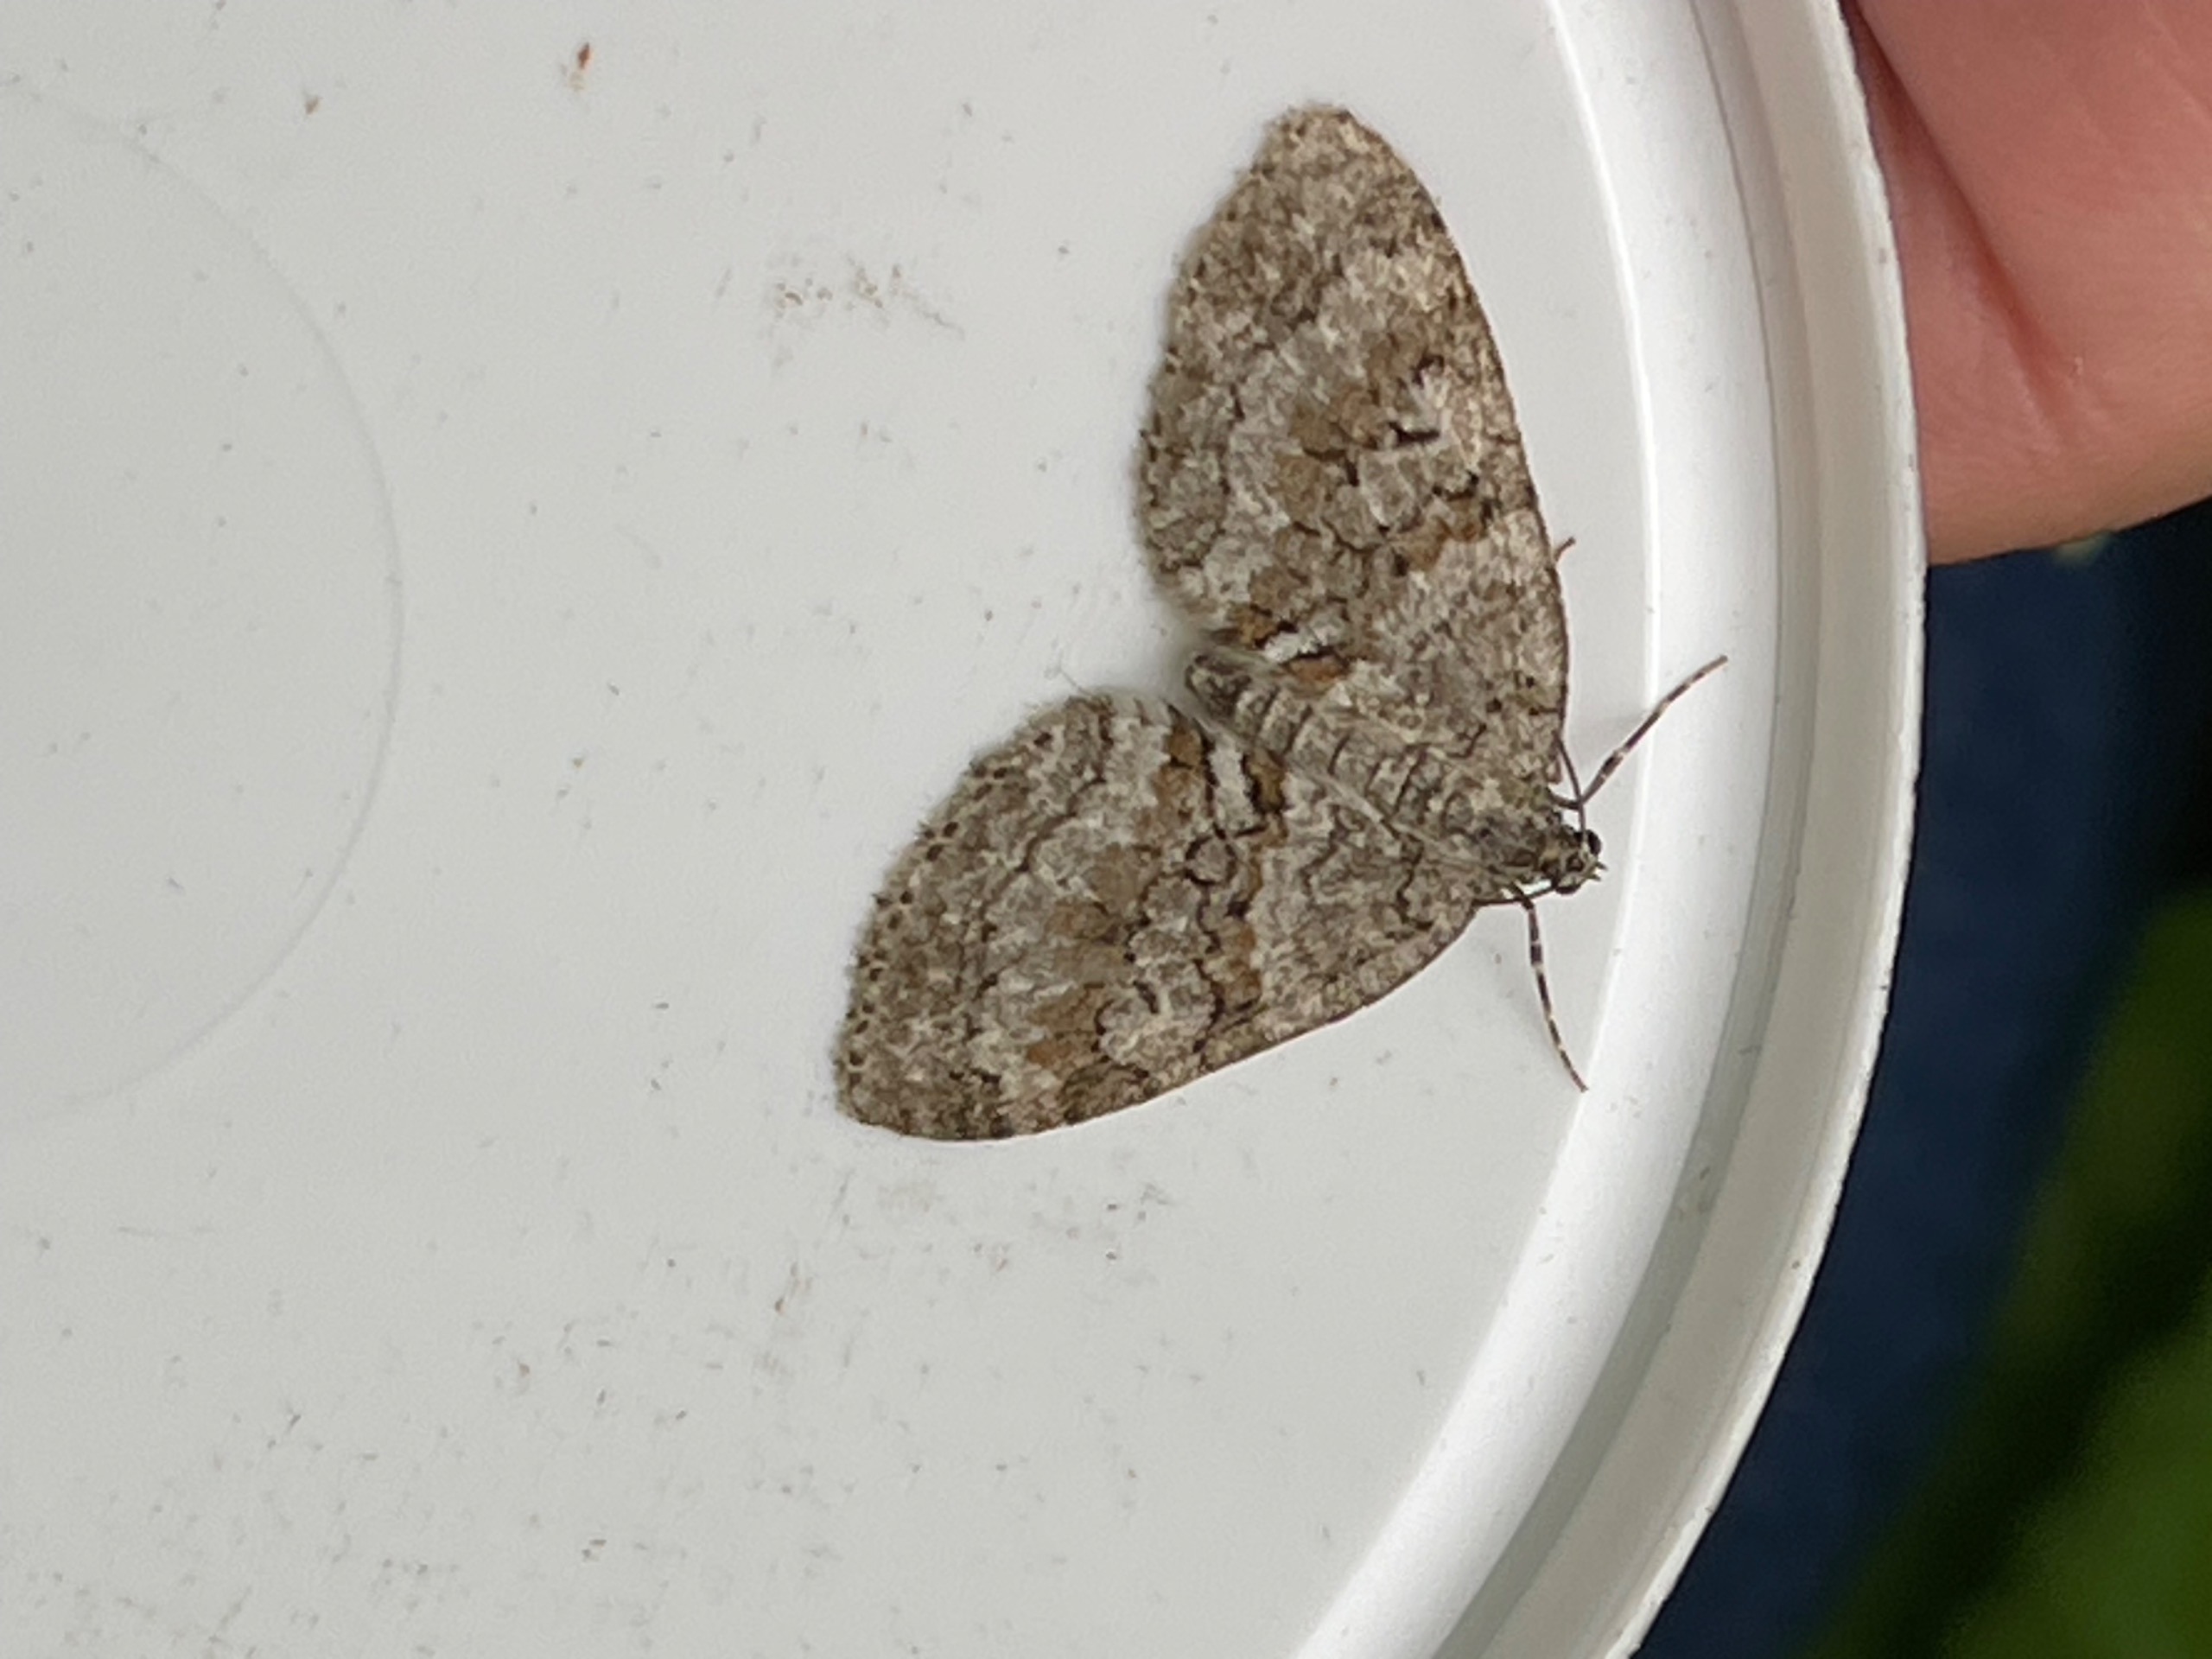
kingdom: Animalia
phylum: Arthropoda
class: Insecta
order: Lepidoptera
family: Geometridae
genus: Nothocasis
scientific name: Nothocasis sertata
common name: Ahornmåler
